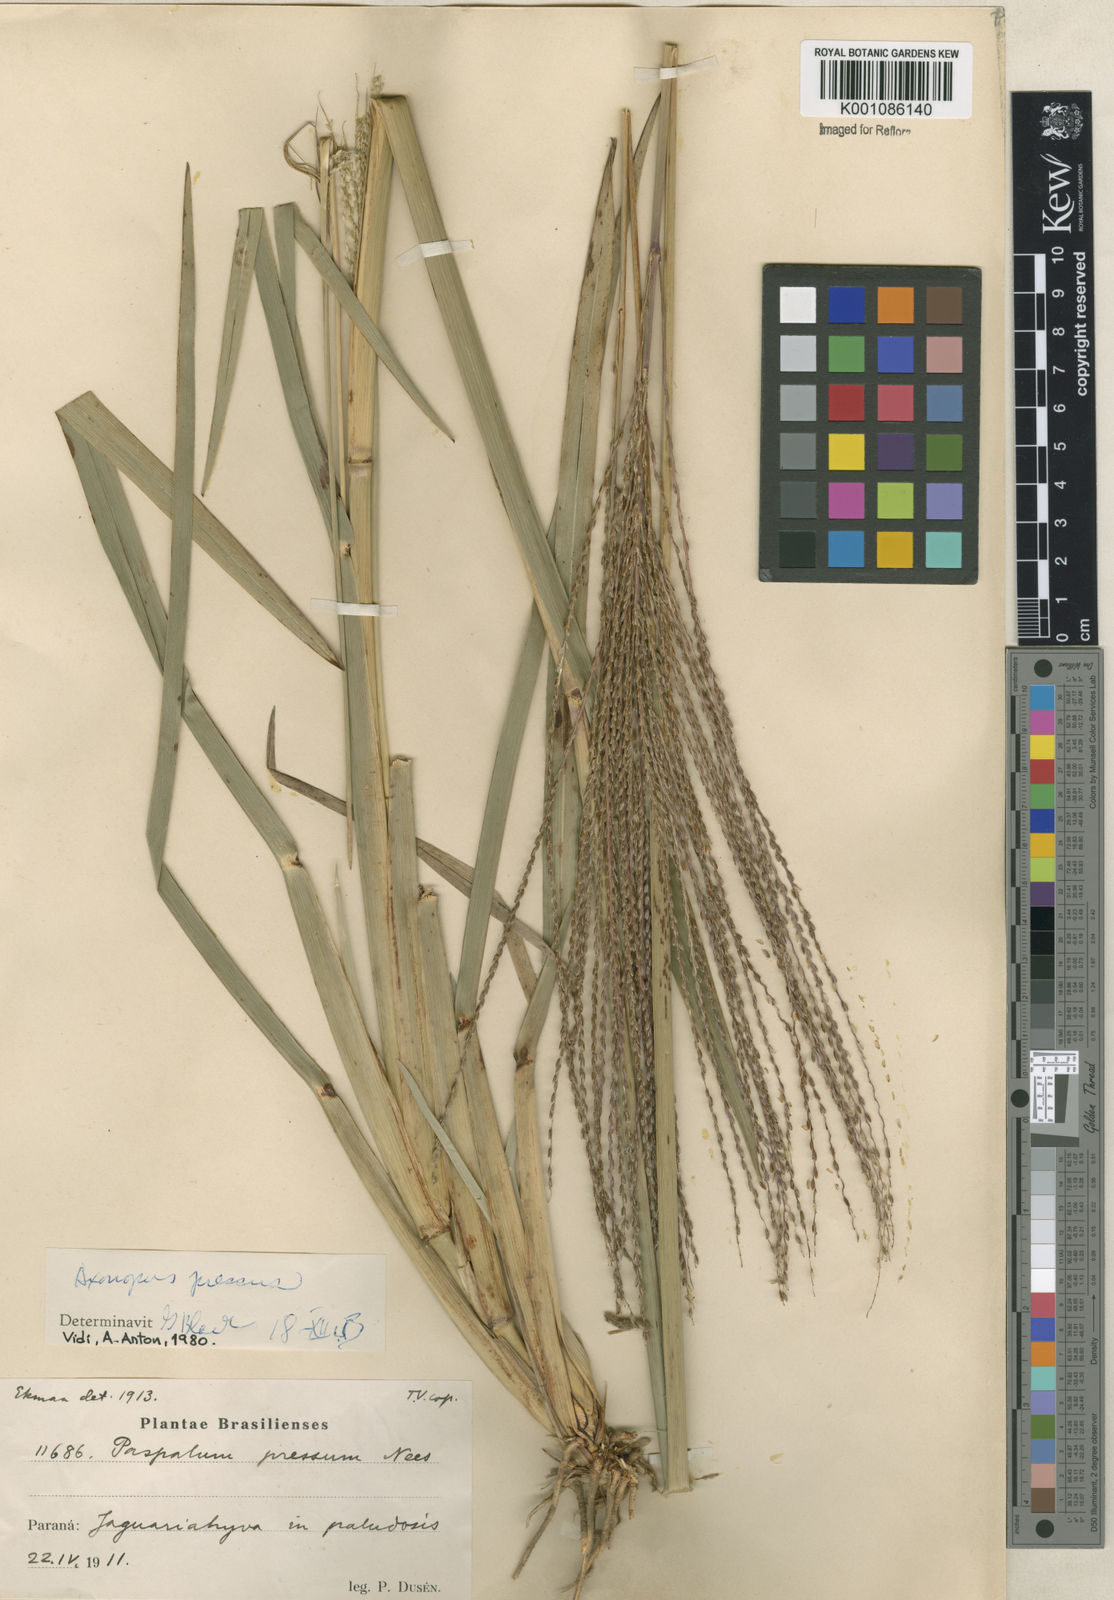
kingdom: Plantae
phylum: Tracheophyta
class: Liliopsida
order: Poales
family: Poaceae
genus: Axonopus
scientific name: Axonopus pressus
